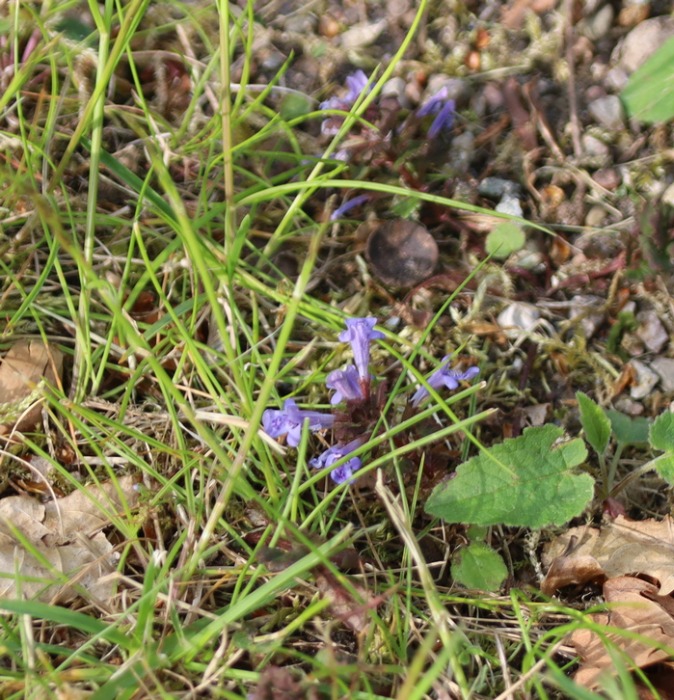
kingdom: Plantae
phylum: Tracheophyta
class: Magnoliopsida
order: Lamiales
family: Lamiaceae
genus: Glechoma
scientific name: Glechoma hederacea
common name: Korsknap
